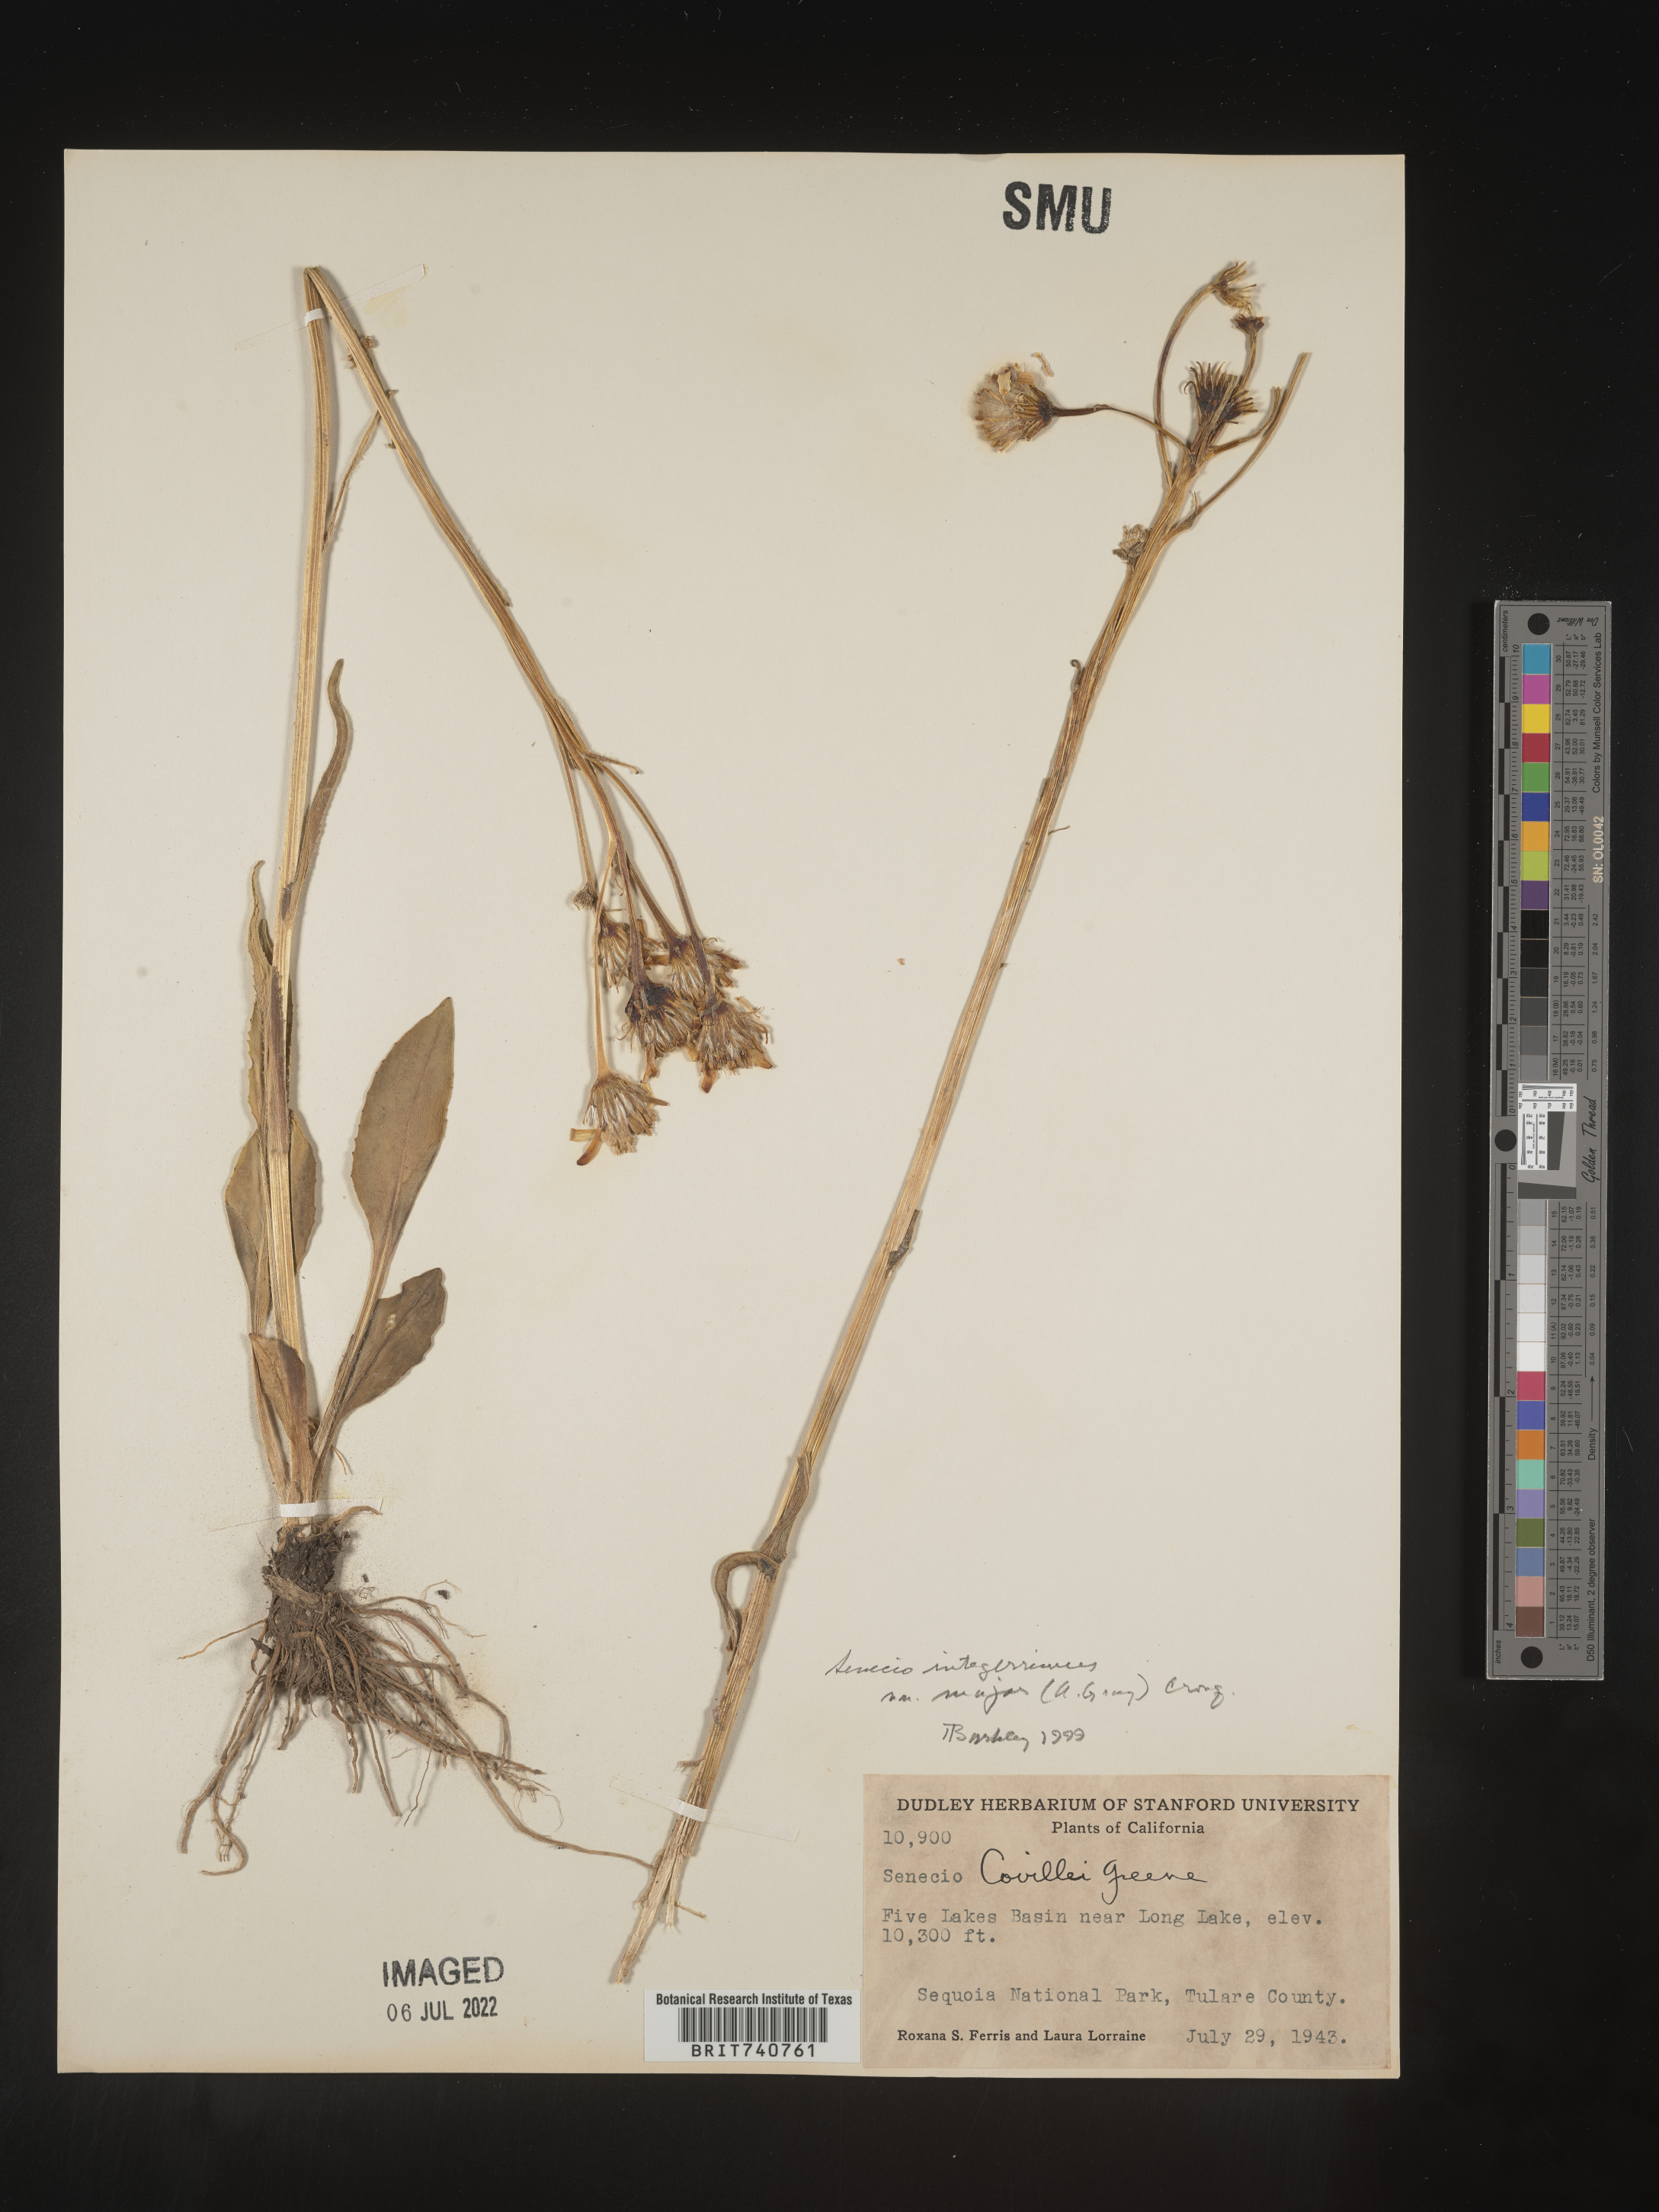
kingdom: Plantae
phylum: Tracheophyta
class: Magnoliopsida
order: Asterales
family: Asteraceae
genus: Senecio
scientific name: Senecio integerrimus
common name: Gaugeplant
